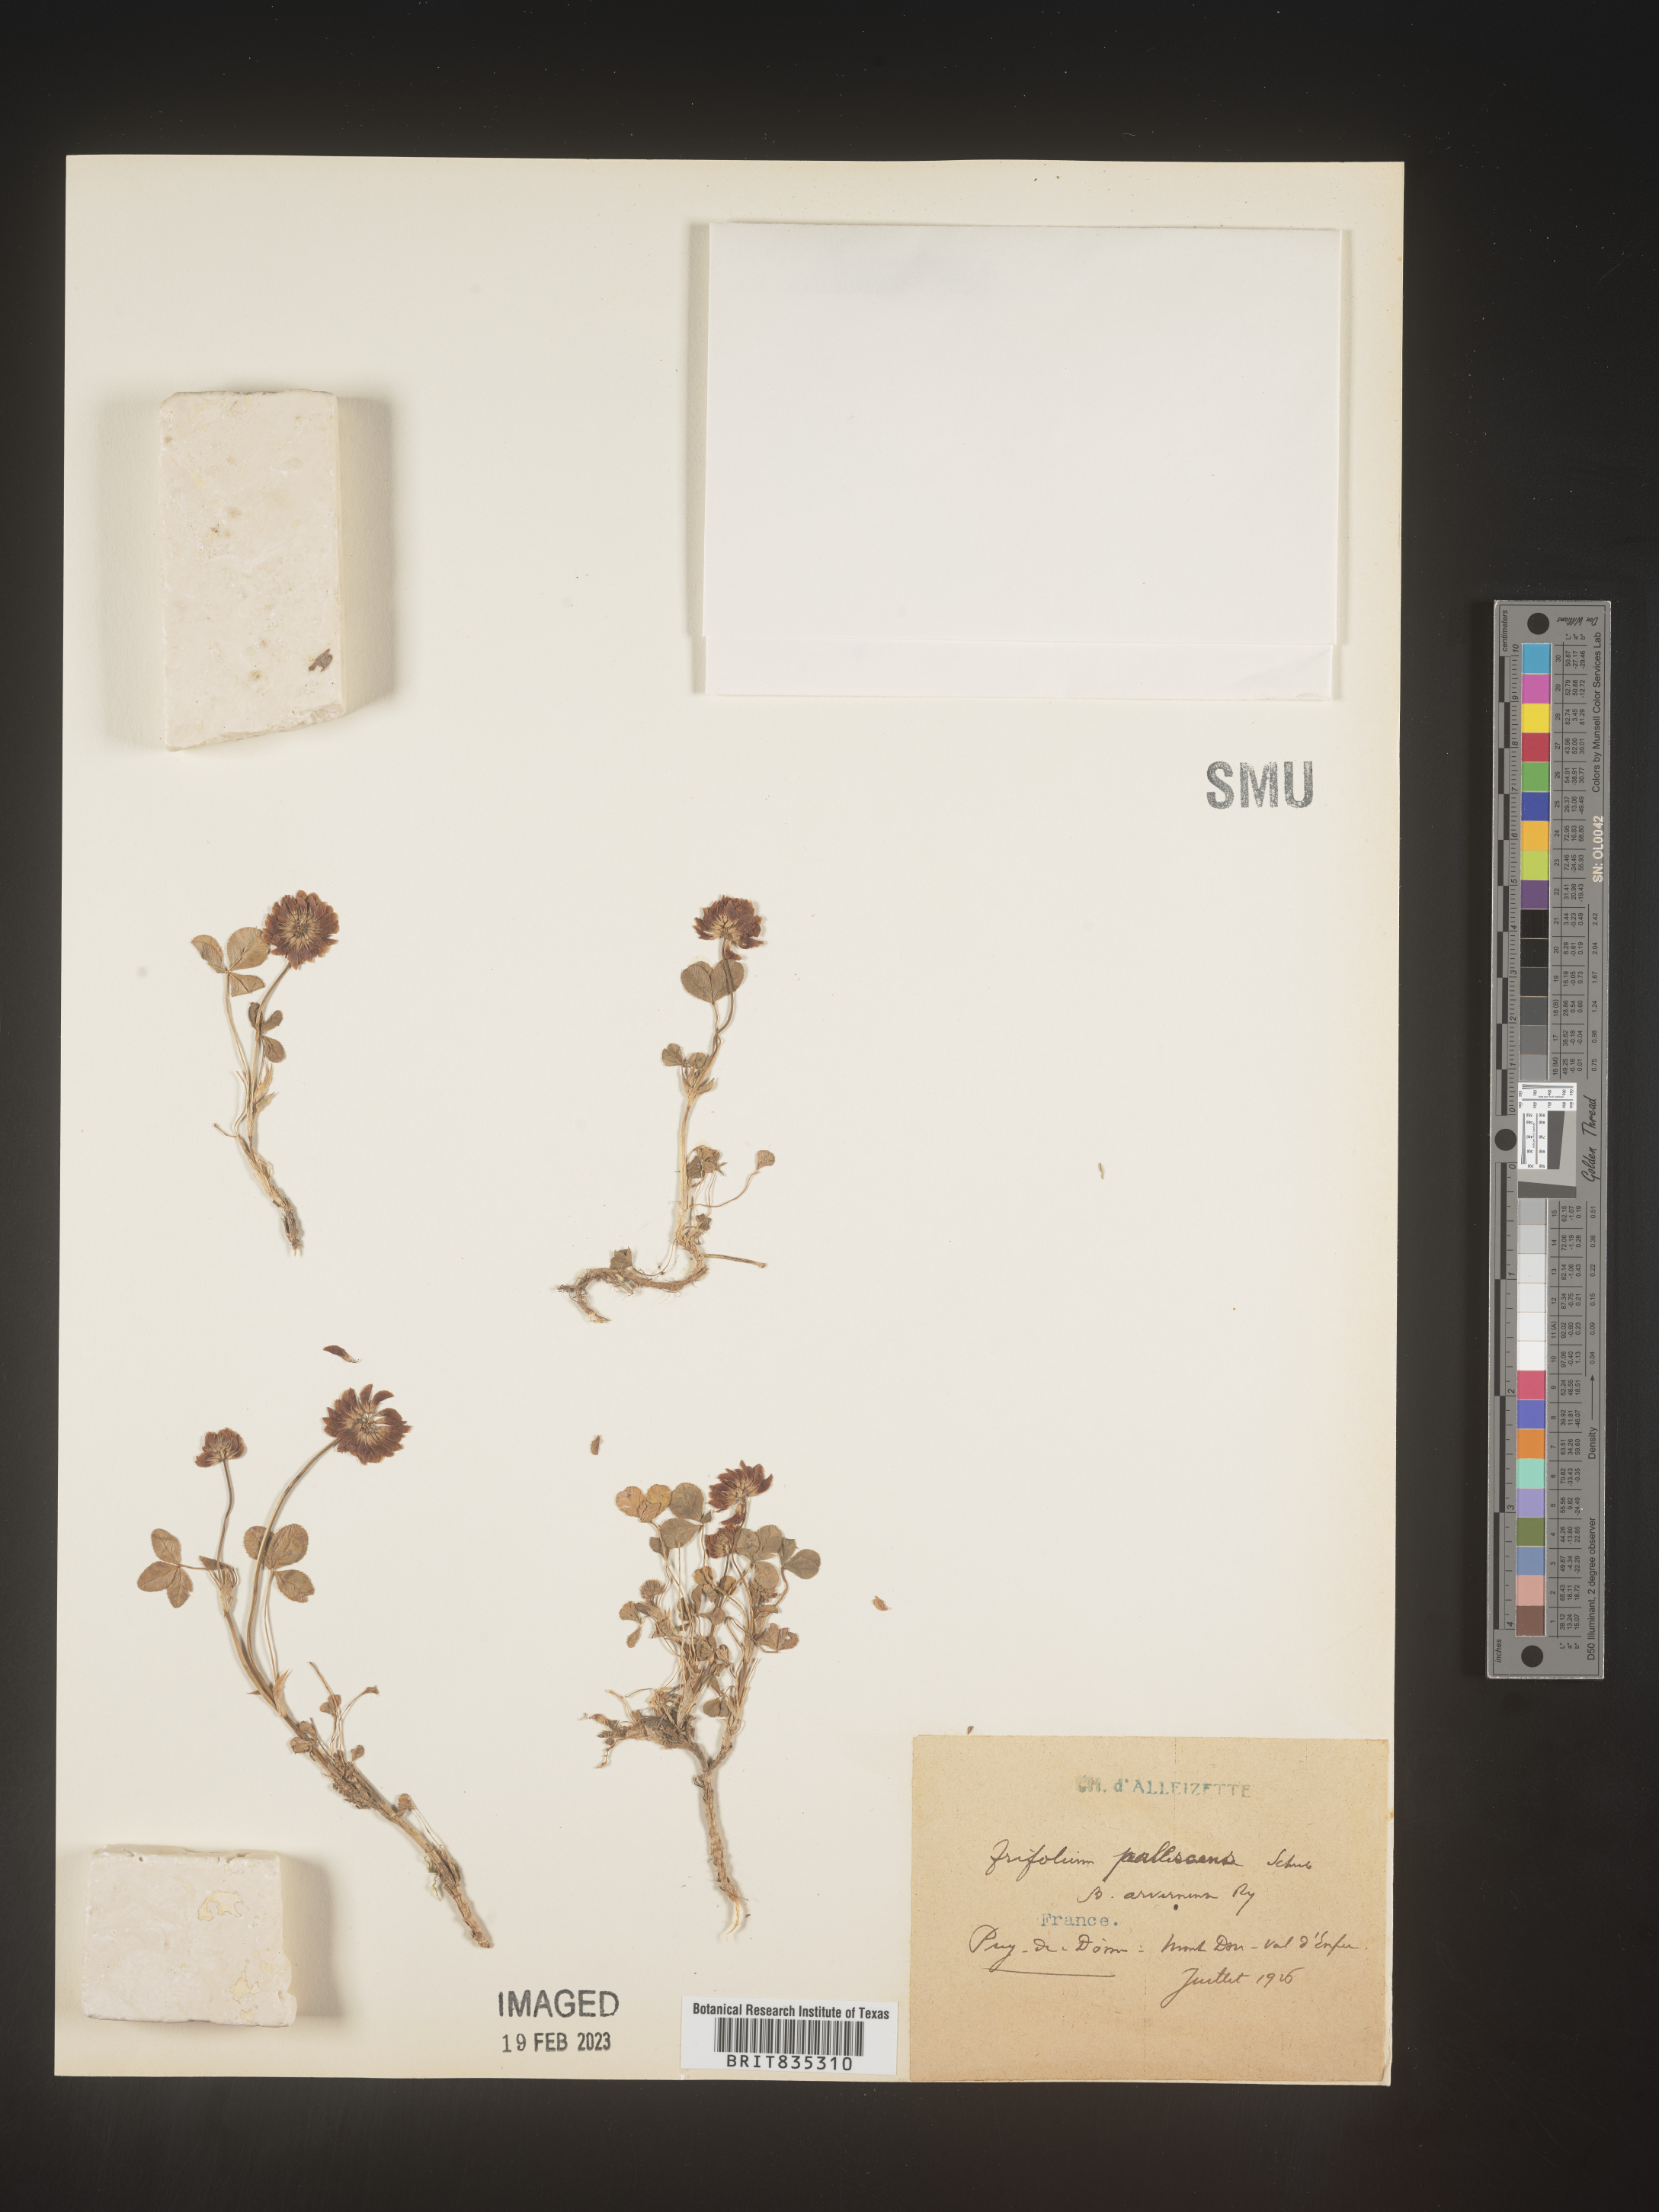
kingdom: Plantae
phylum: Tracheophyta
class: Magnoliopsida
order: Fabales
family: Fabaceae
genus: Trifolium
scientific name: Trifolium
